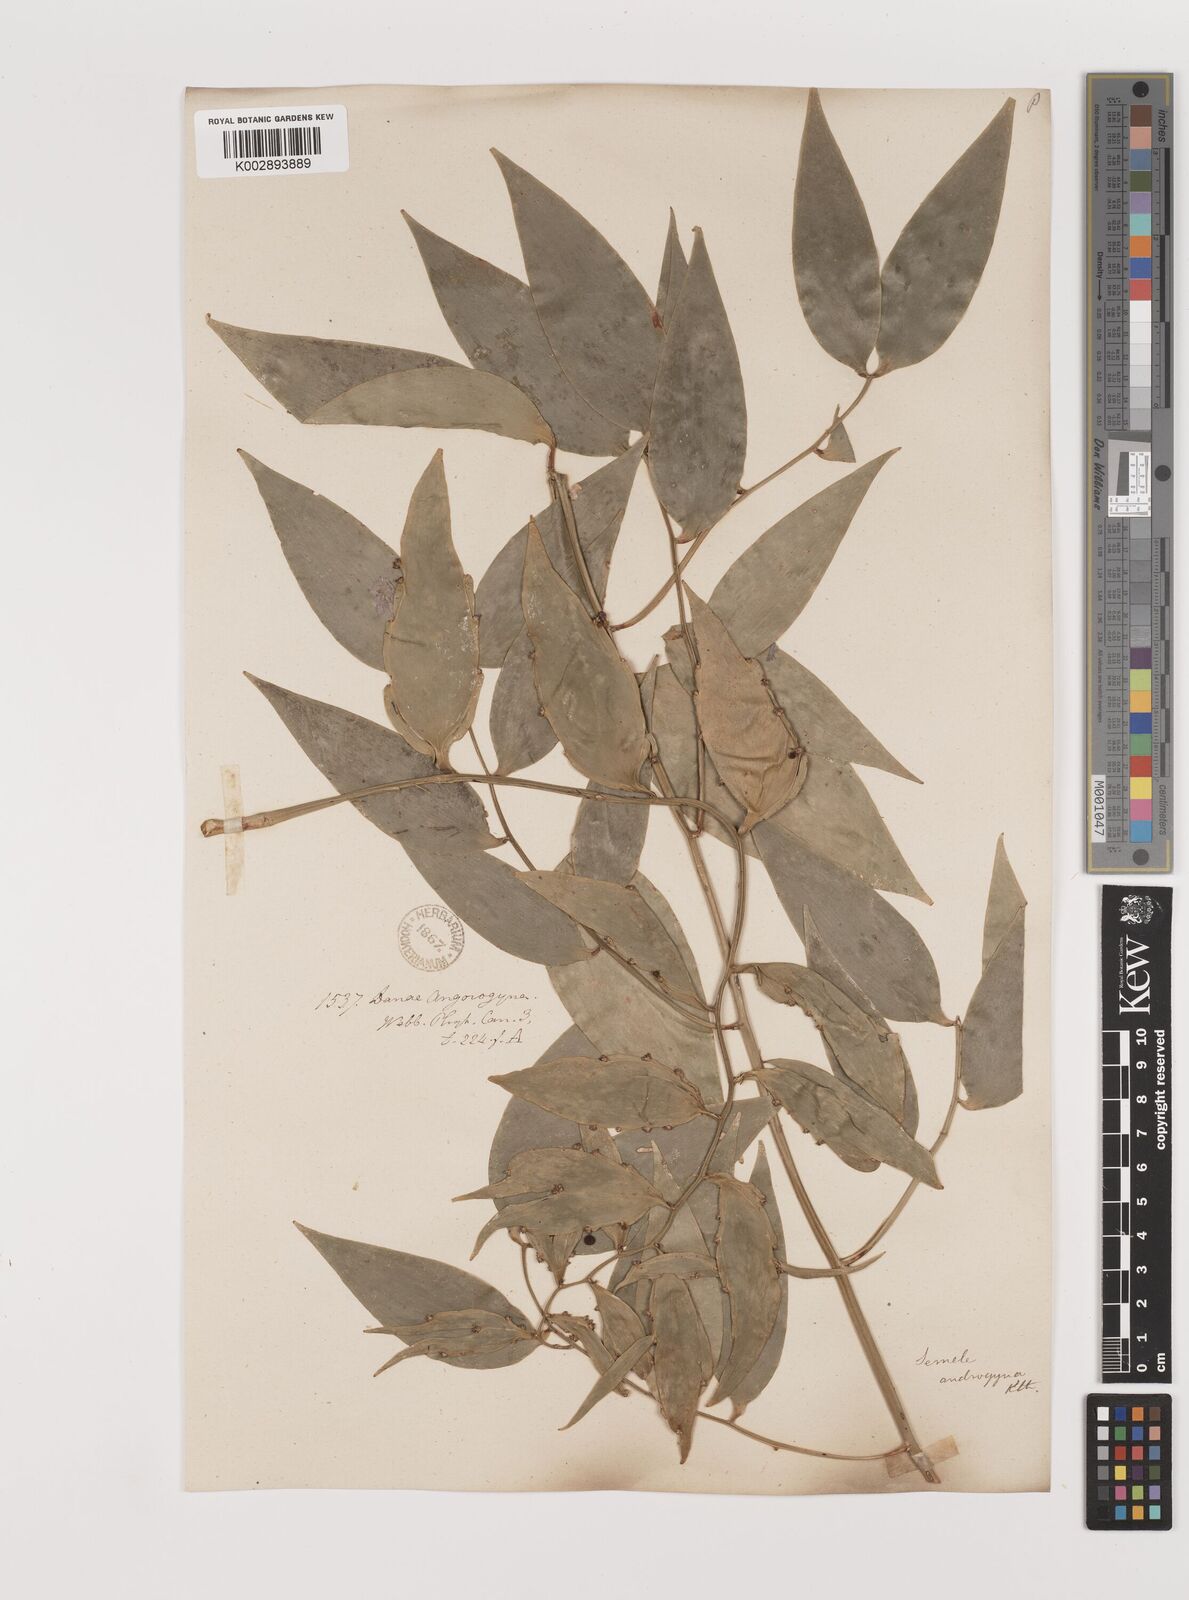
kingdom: Plantae
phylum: Tracheophyta
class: Liliopsida
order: Asparagales
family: Asparagaceae
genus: Semele
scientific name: Semele androgyna
